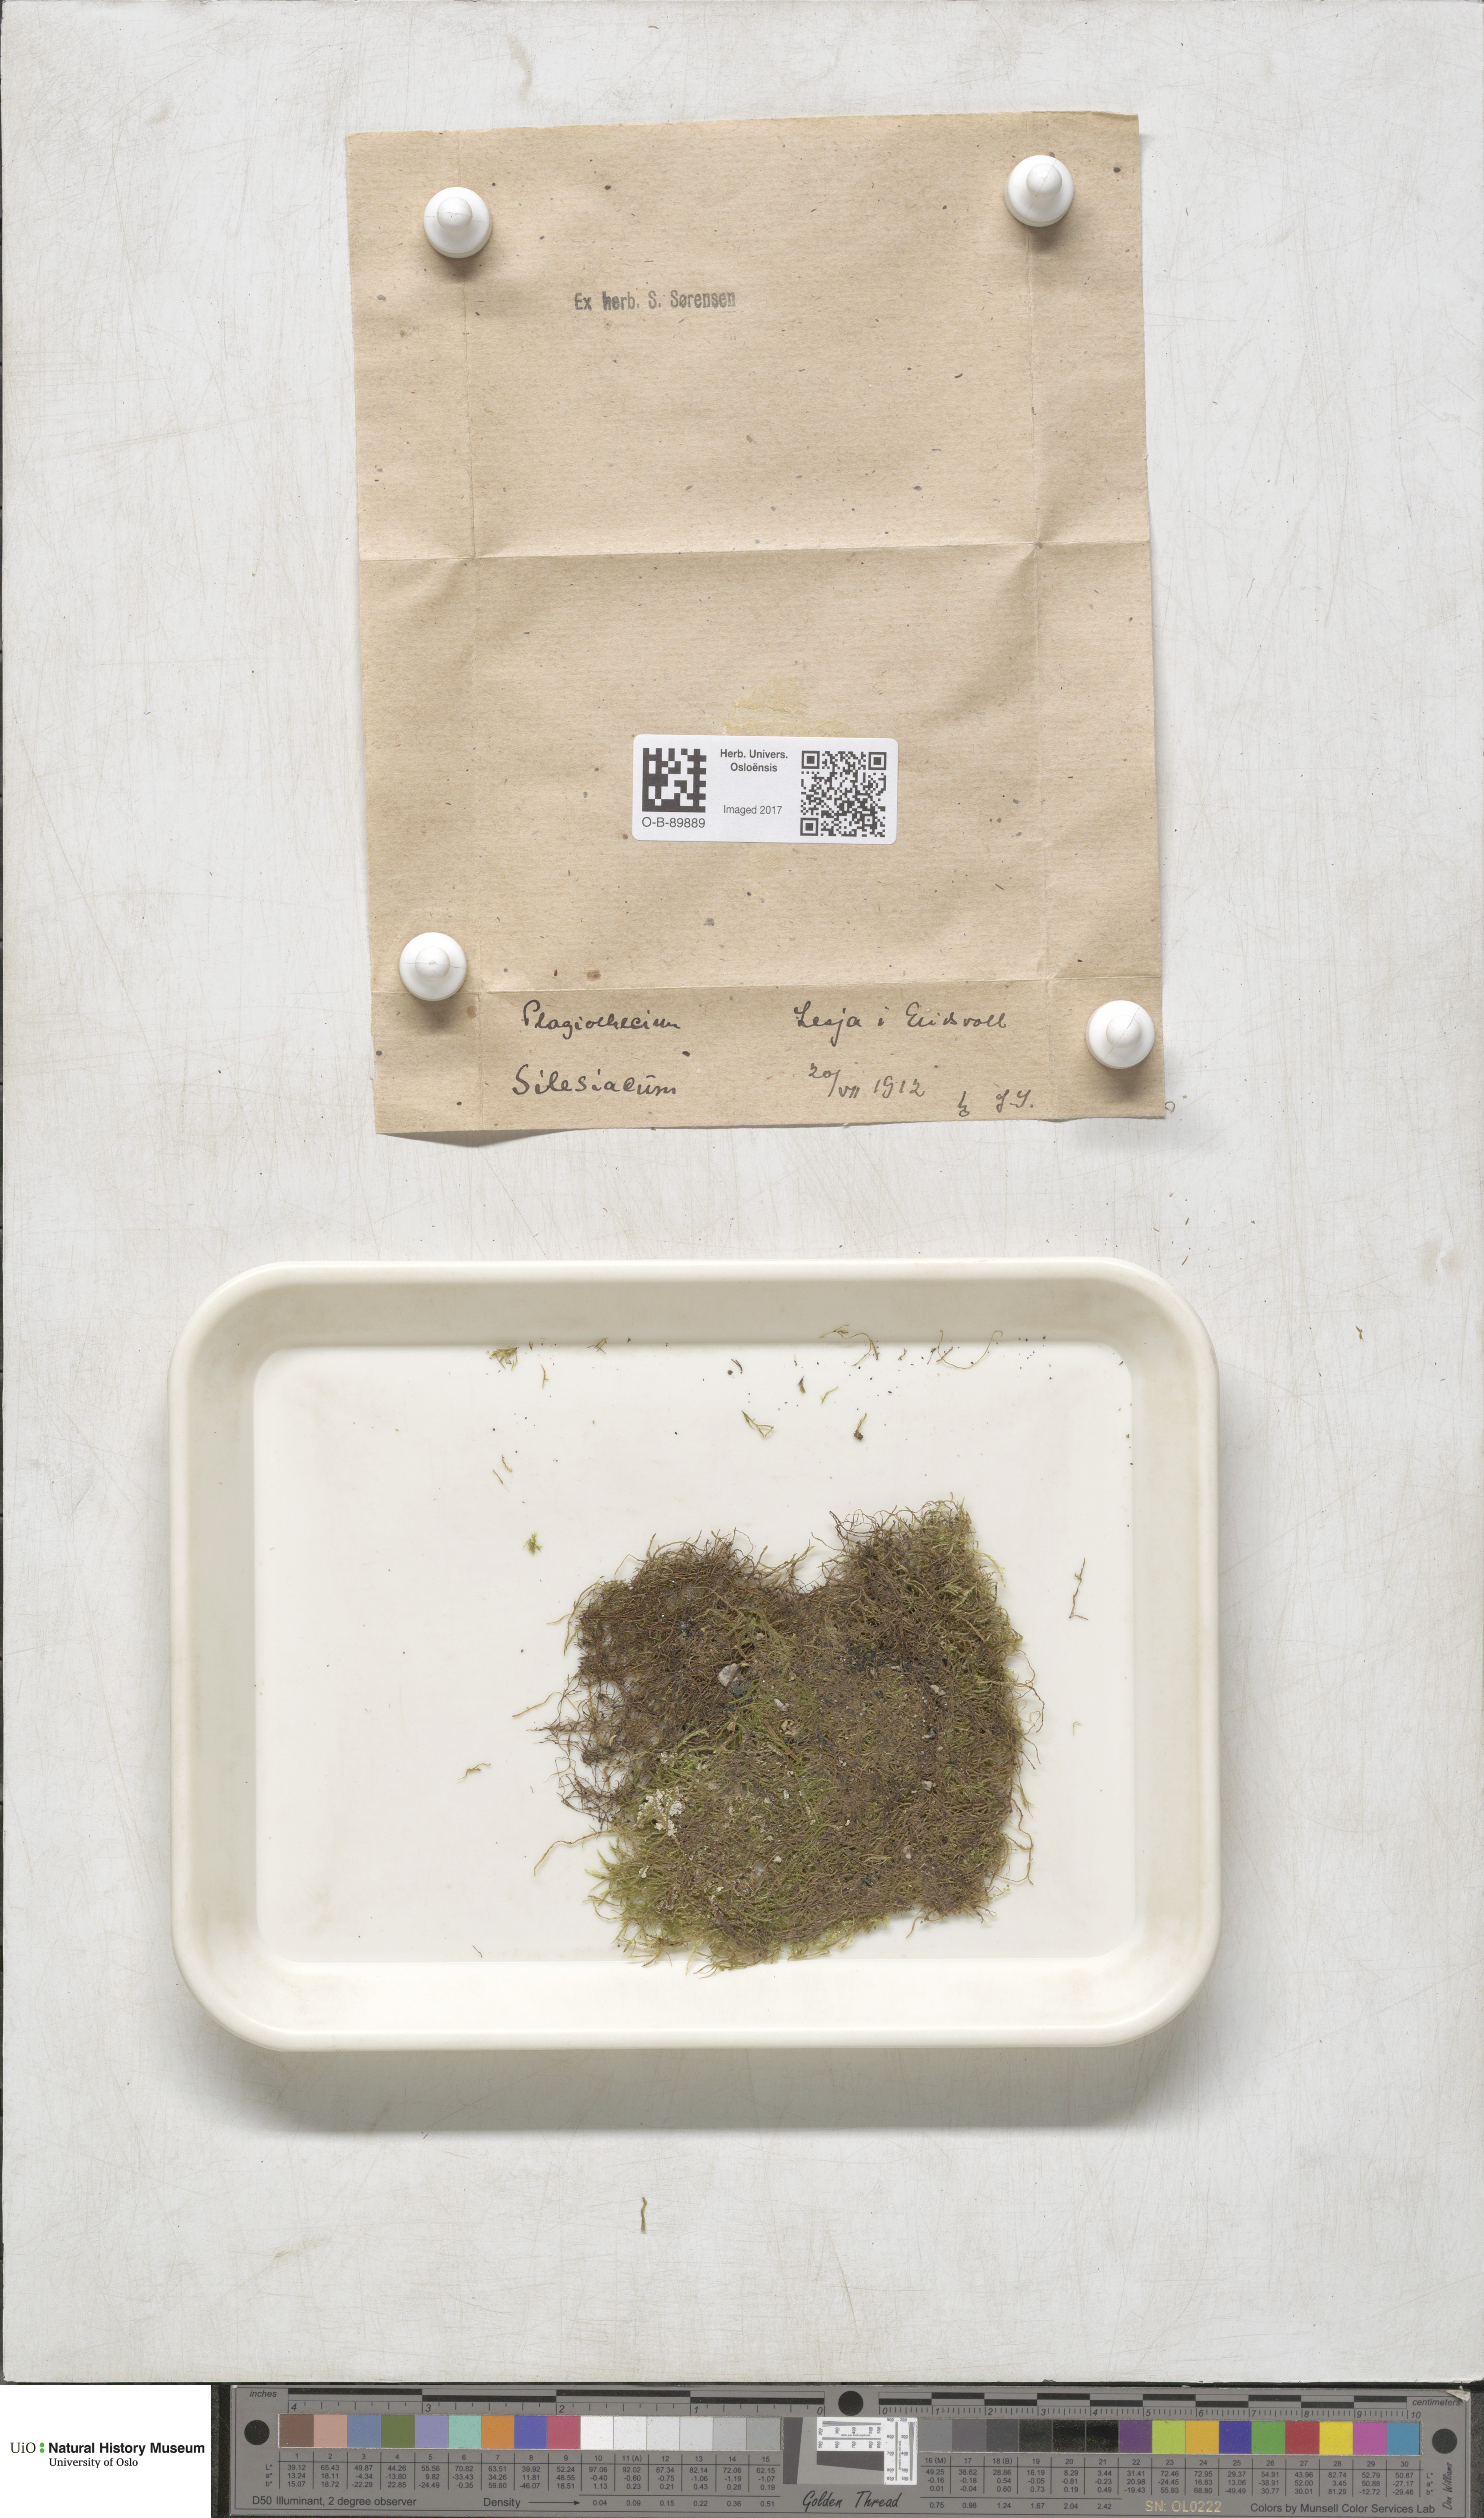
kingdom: Plantae
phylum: Bryophyta
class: Bryopsida
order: Hypnales
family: Plagiotheciaceae
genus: Herzogiella
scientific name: Herzogiella seligeri
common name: Silesian feather-moss
